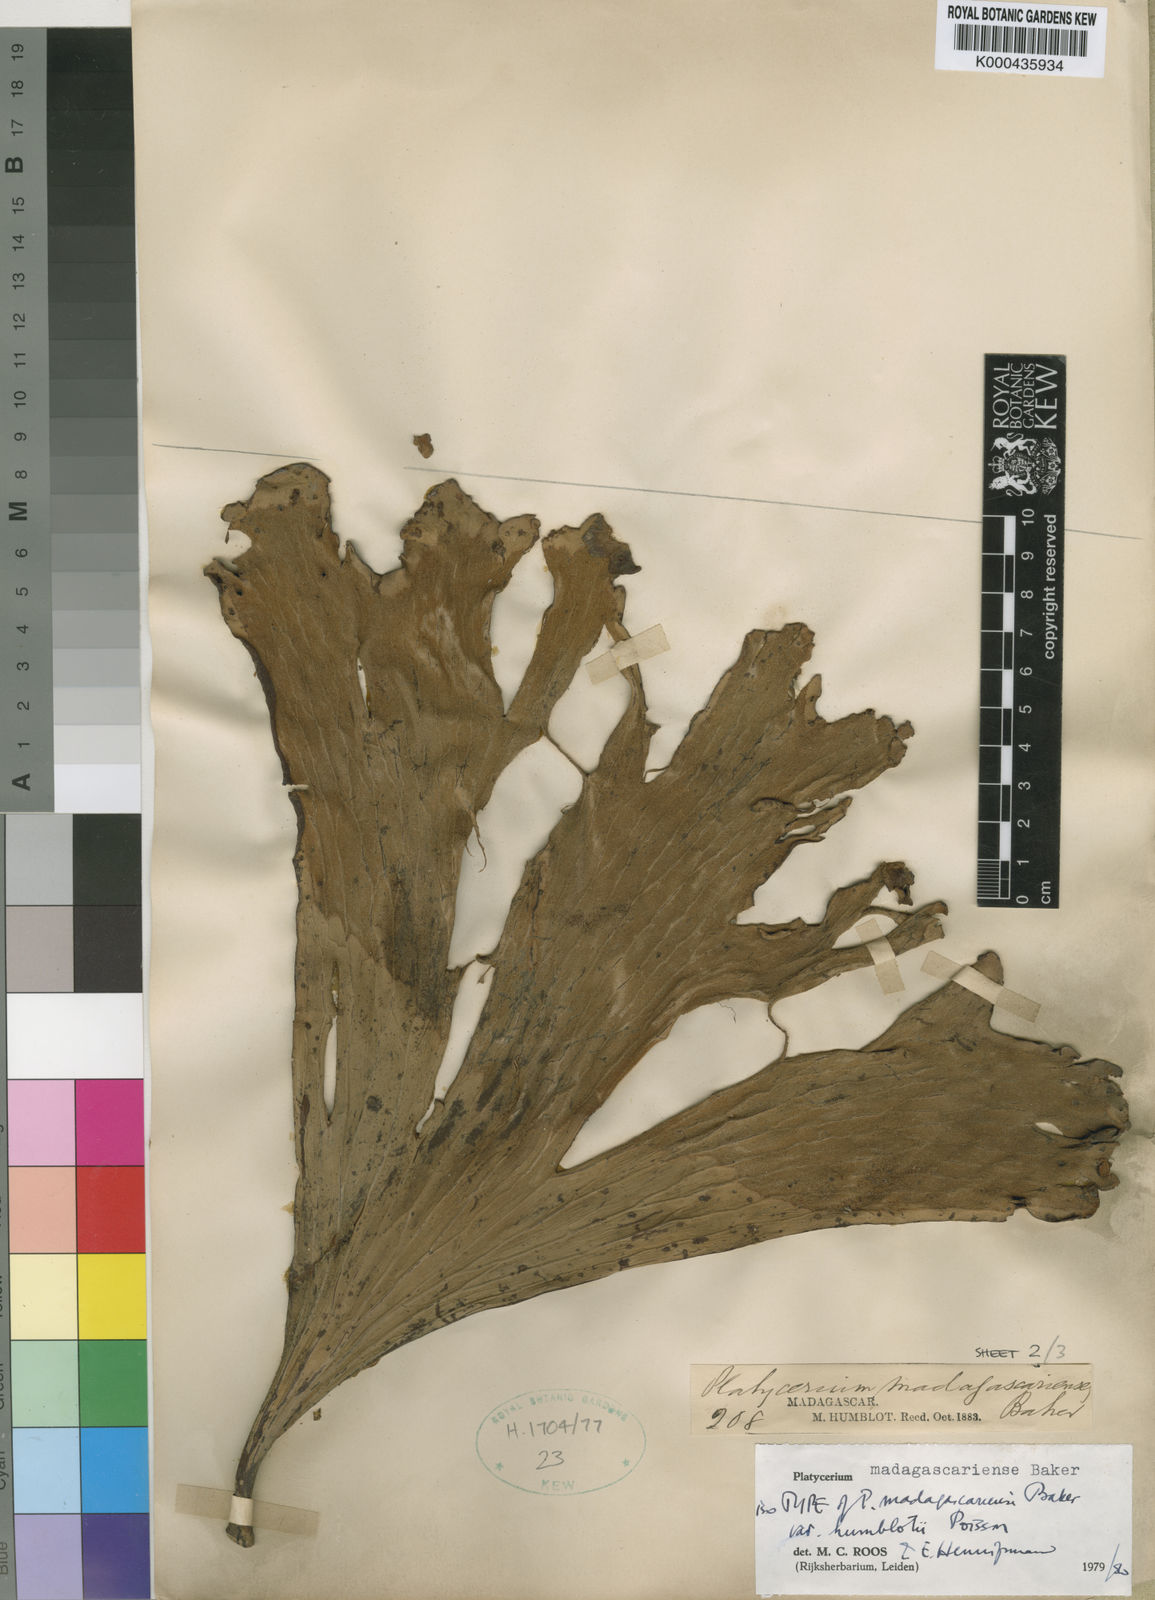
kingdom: Plantae
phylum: Tracheophyta
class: Polypodiopsida
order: Polypodiales
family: Polypodiaceae
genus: Platycerium
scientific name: Platycerium madagascariense
